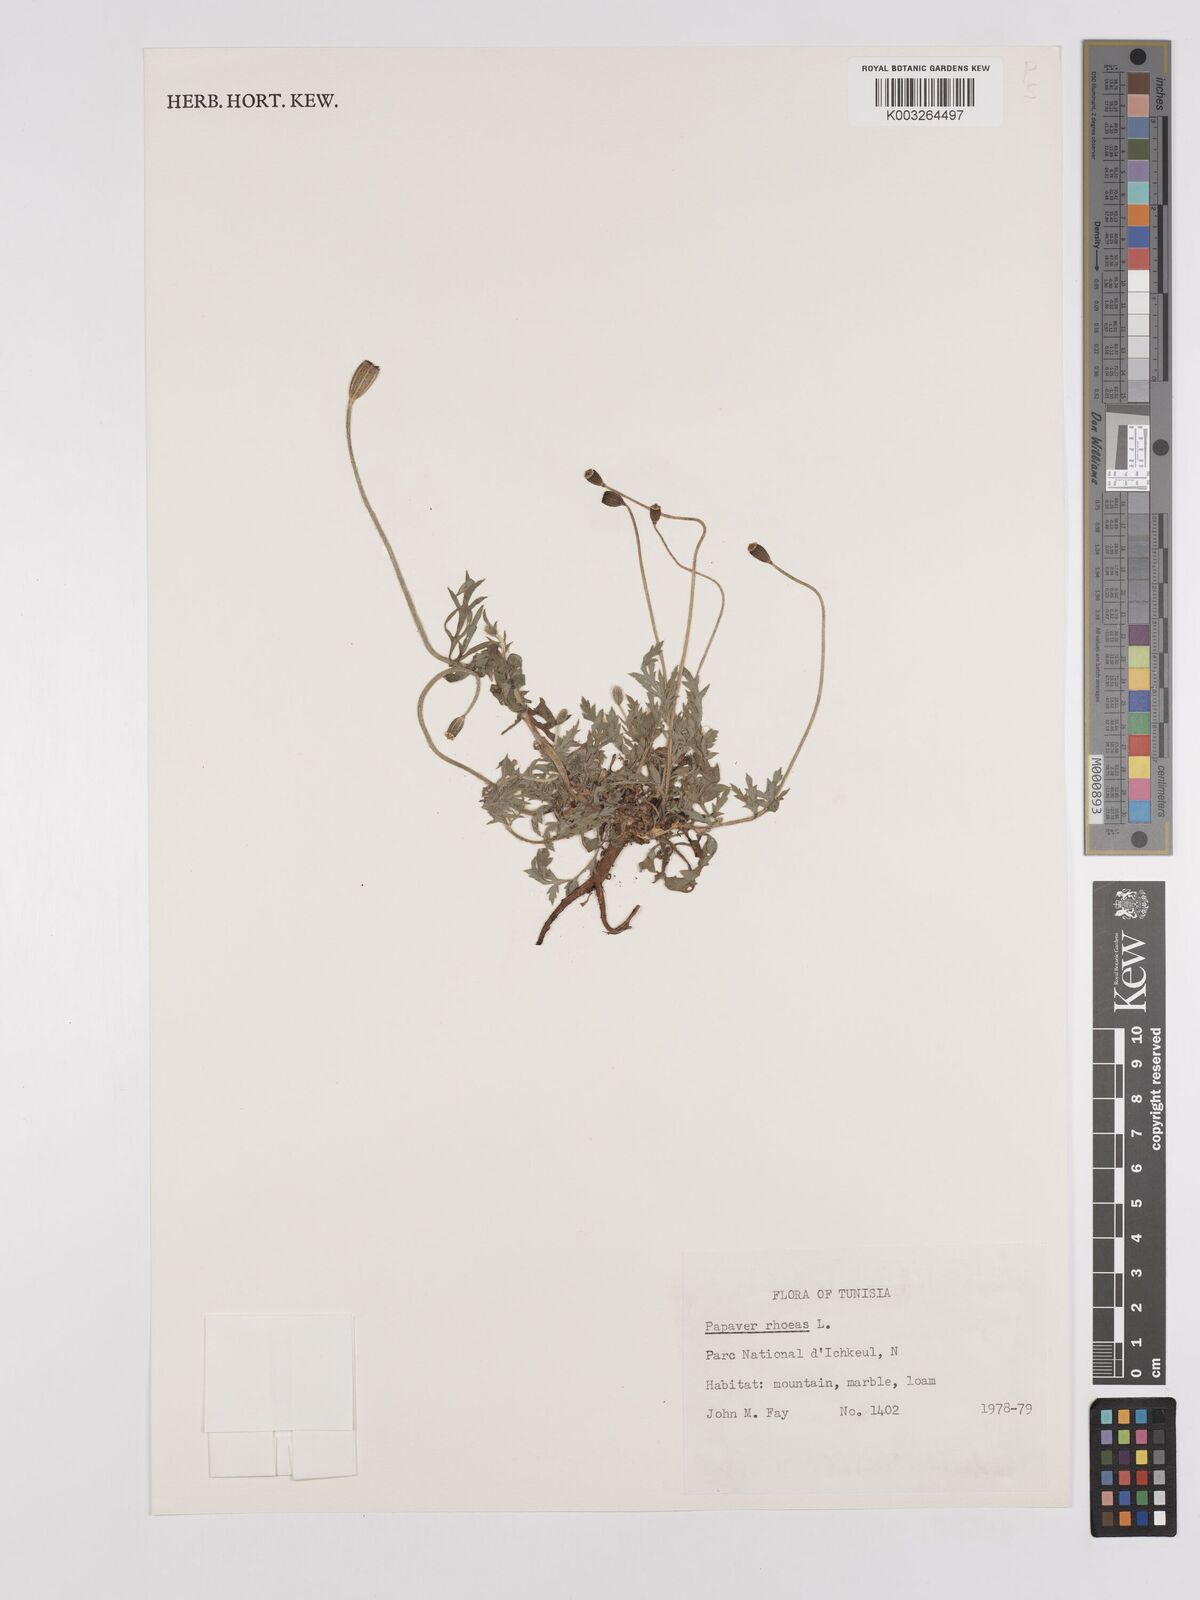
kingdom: Plantae
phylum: Tracheophyta
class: Magnoliopsida
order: Ranunculales
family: Papaveraceae
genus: Papaver
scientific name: Papaver rhoeas
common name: Corn poppy
